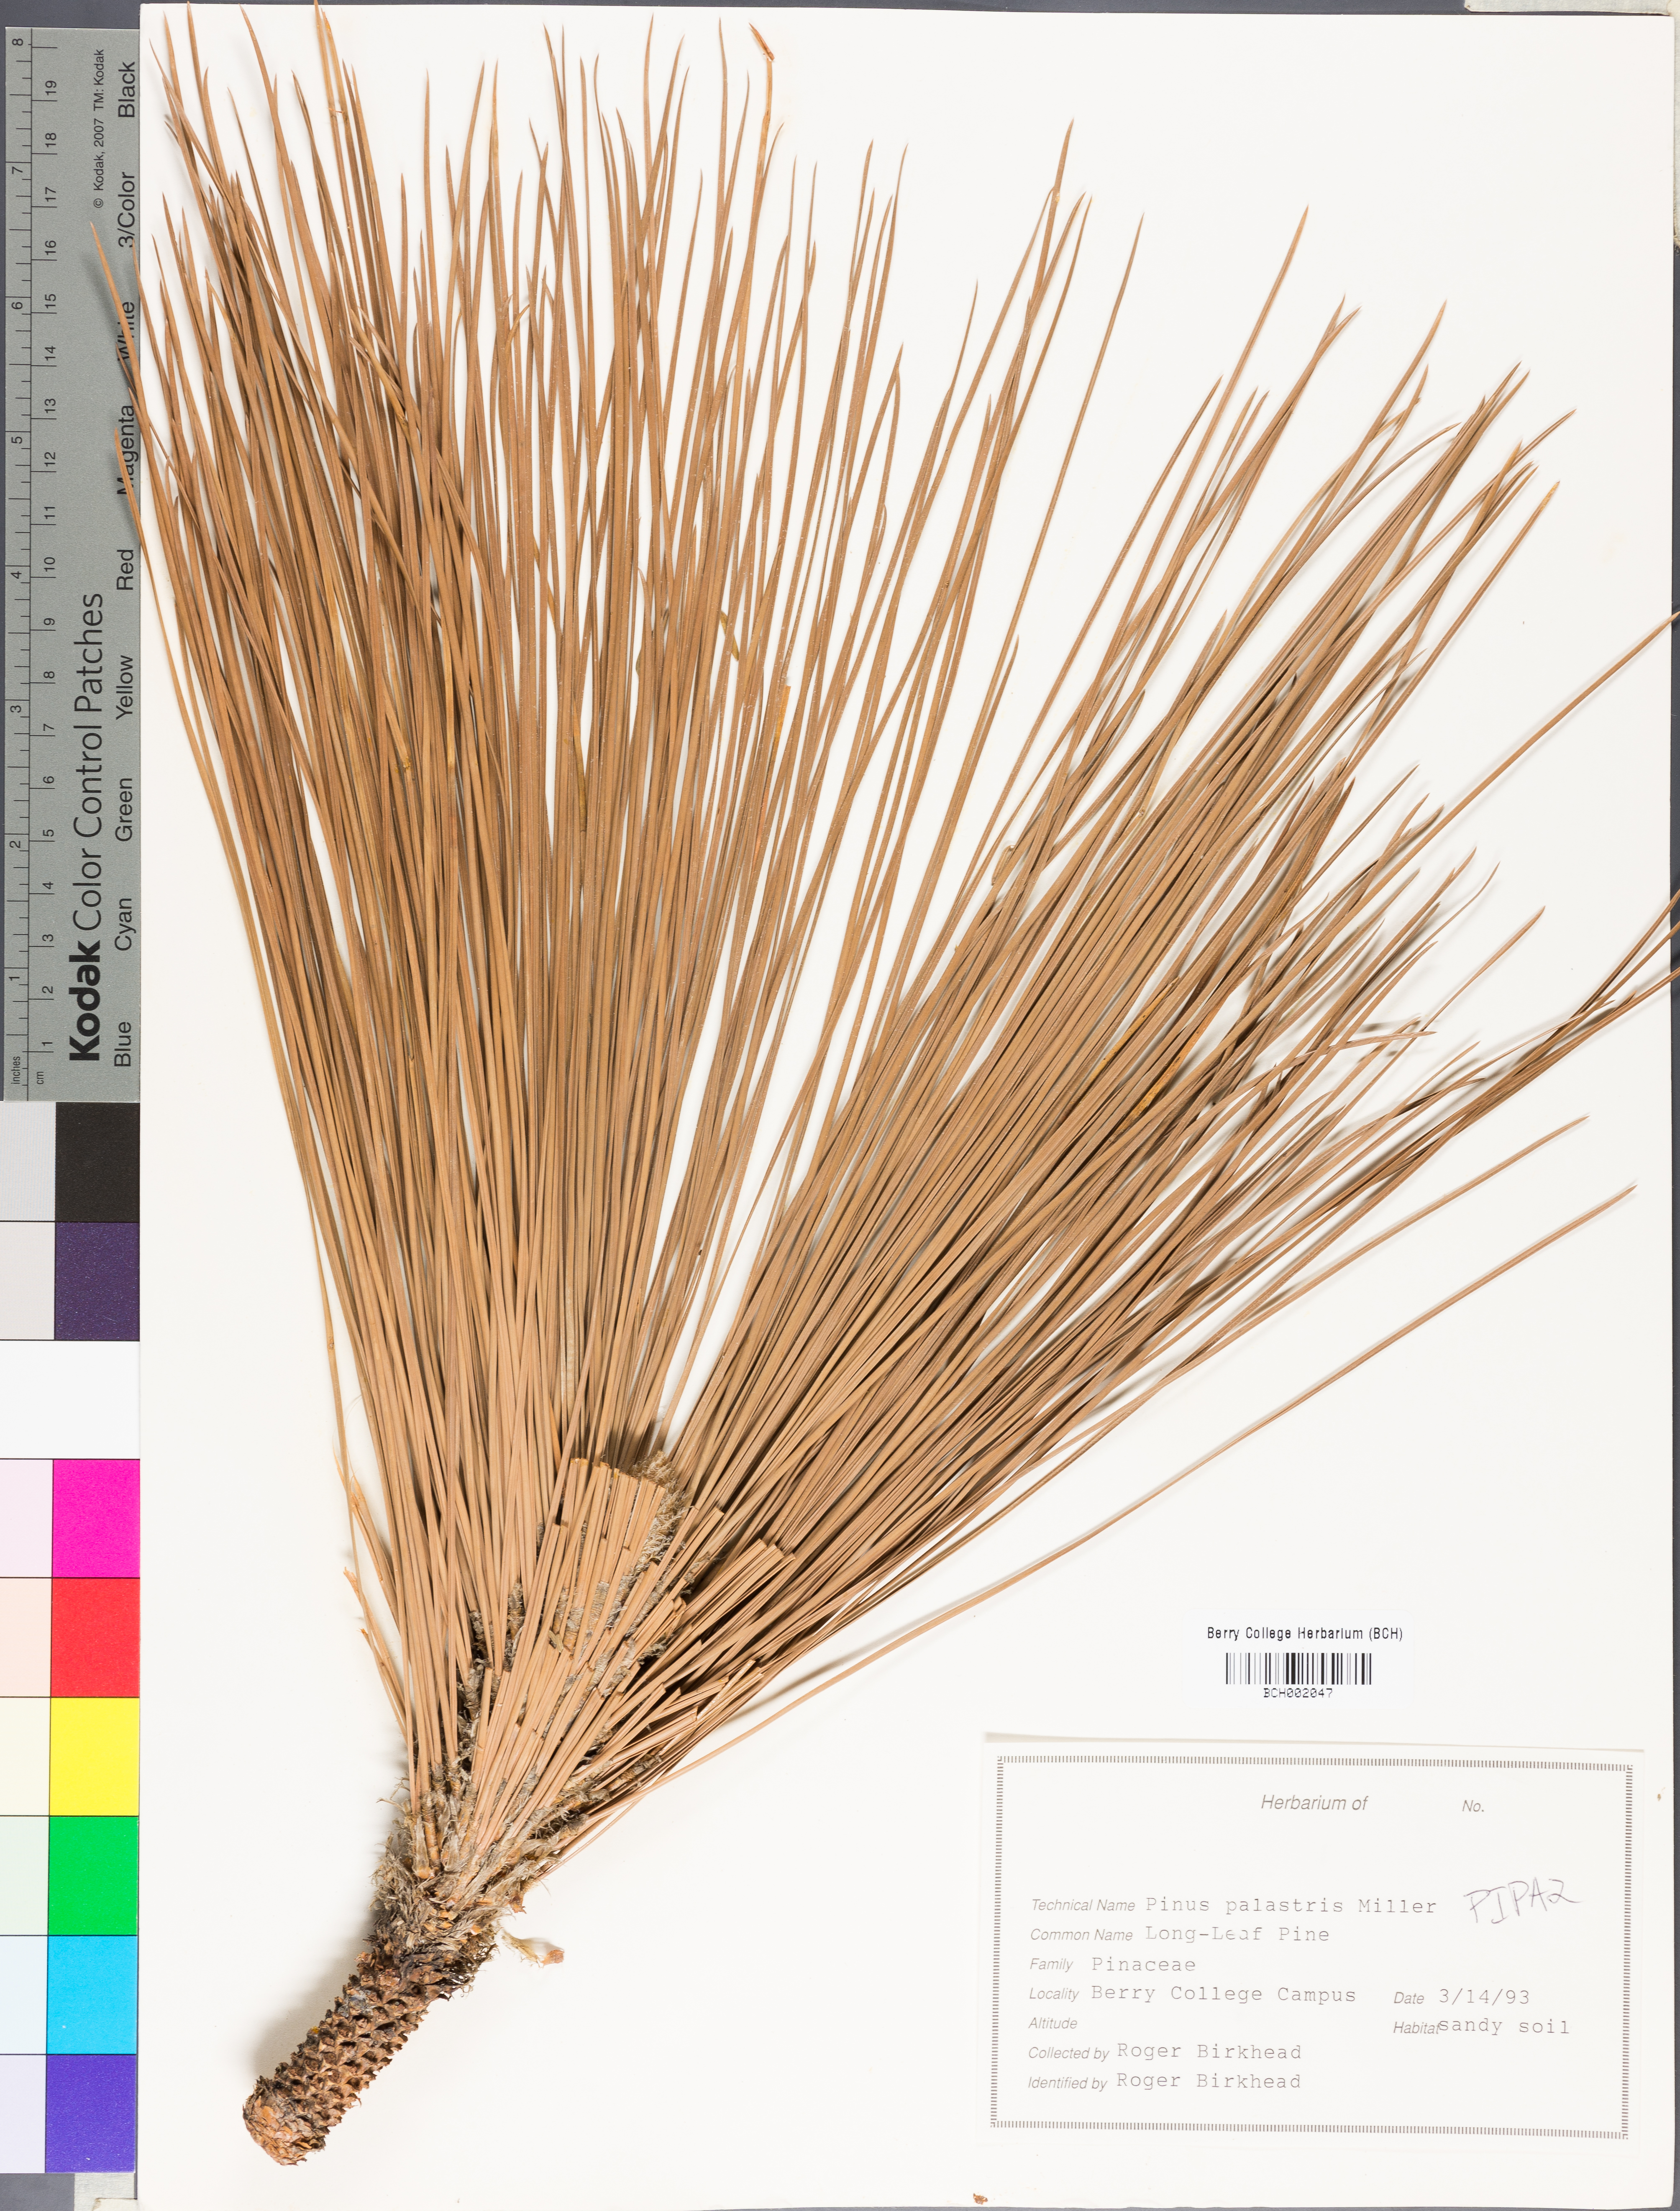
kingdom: Plantae
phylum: Tracheophyta
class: Pinopsida
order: Pinales
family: Pinaceae
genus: Pinus
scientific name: Pinus palustris
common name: Longleaf pine
